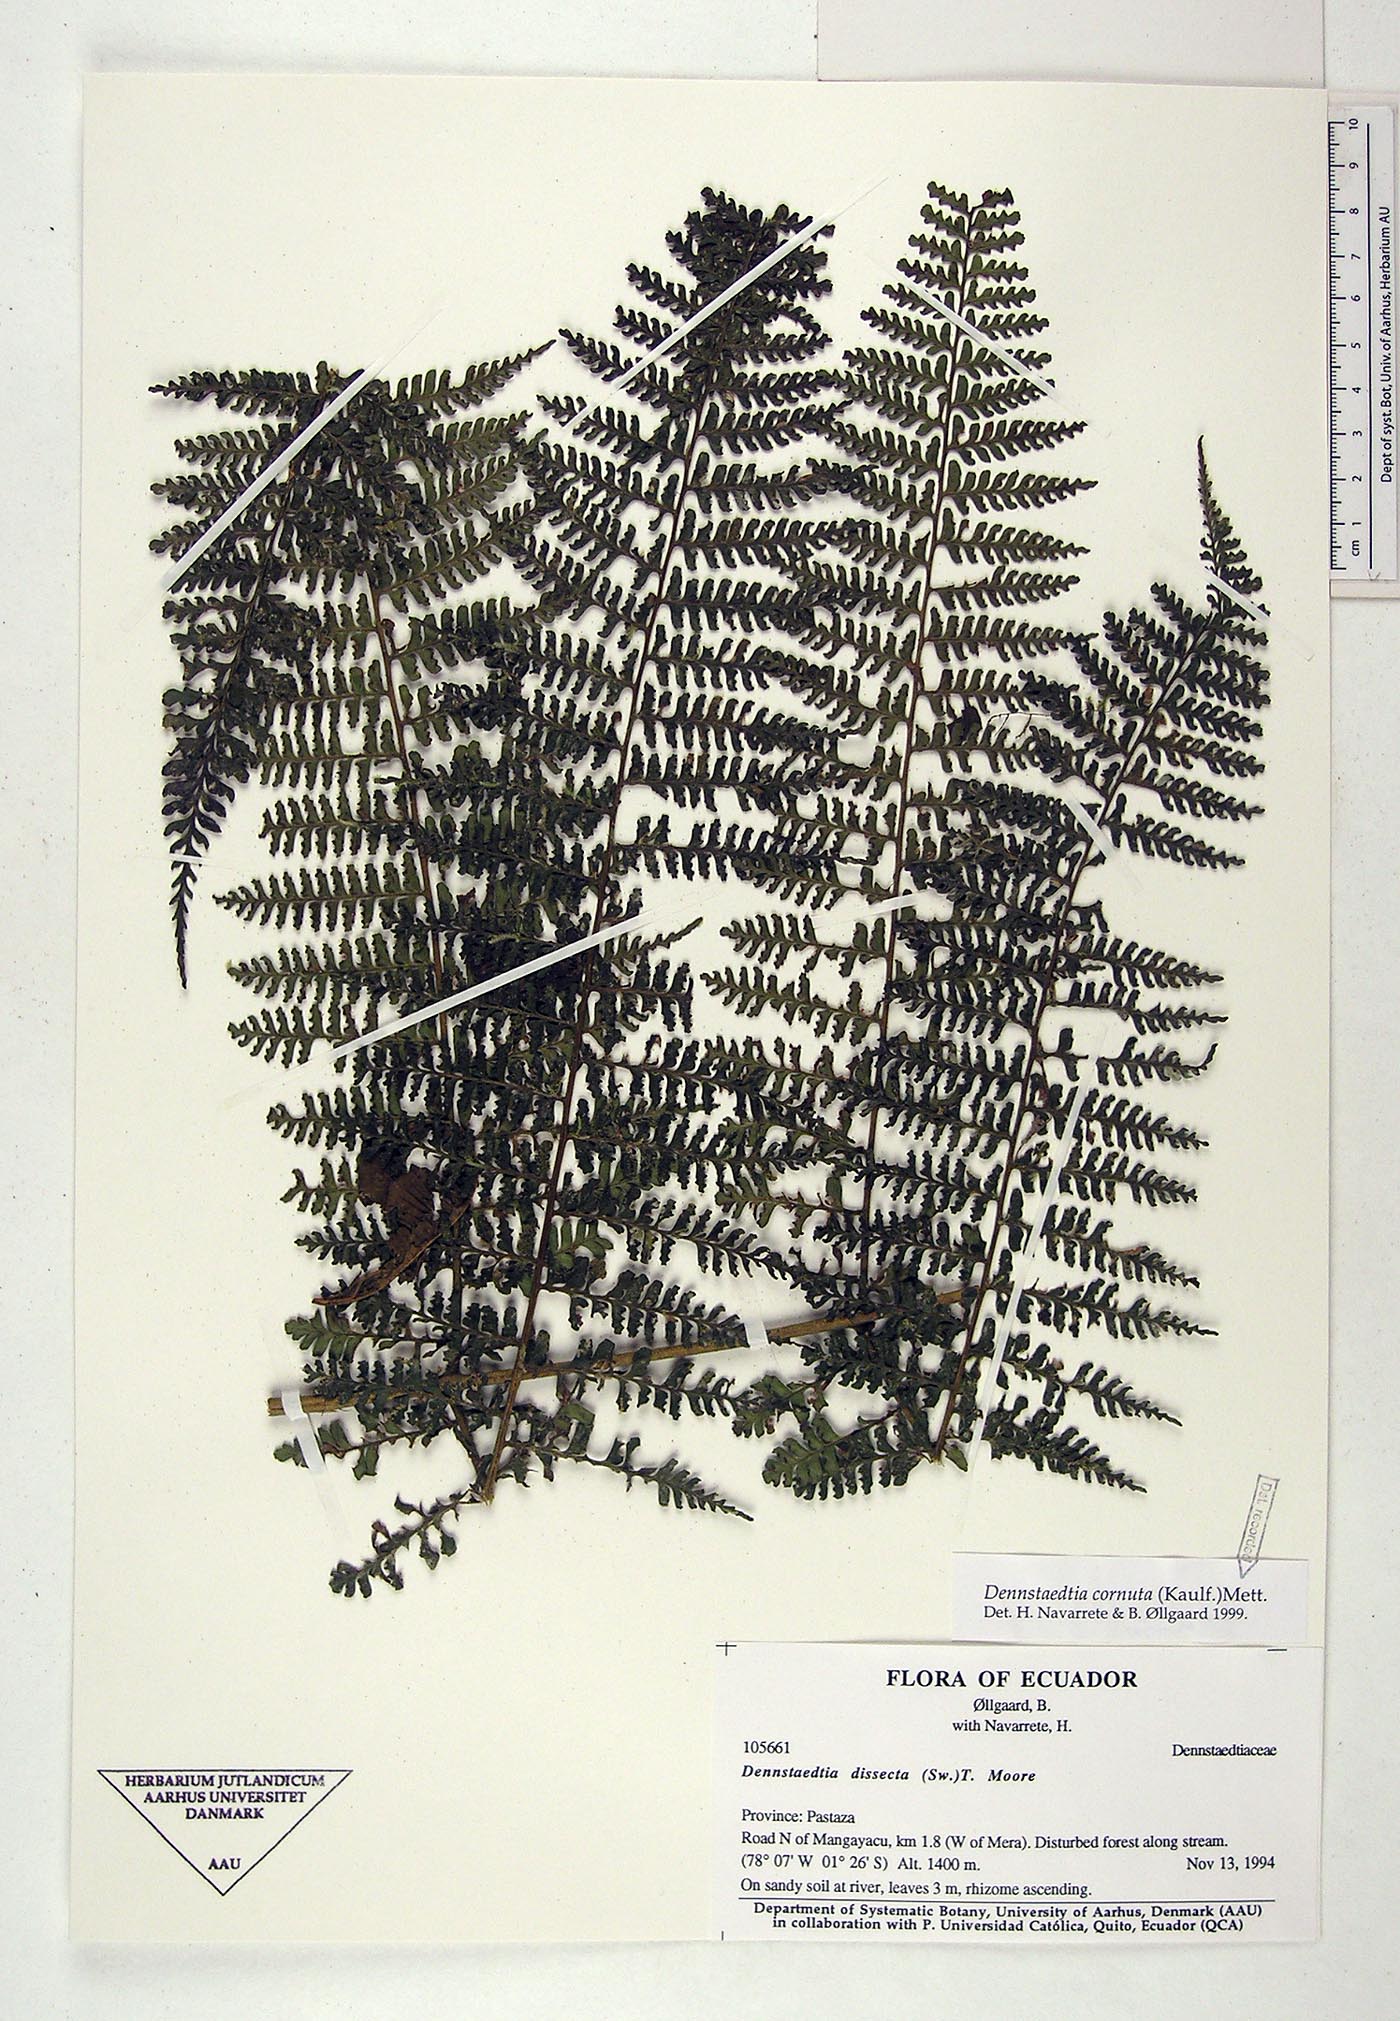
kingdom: Plantae
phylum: Tracheophyta
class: Polypodiopsida
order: Polypodiales
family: Dennstaedtiaceae
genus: Dennstaedtia
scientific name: Dennstaedtia cornuta
